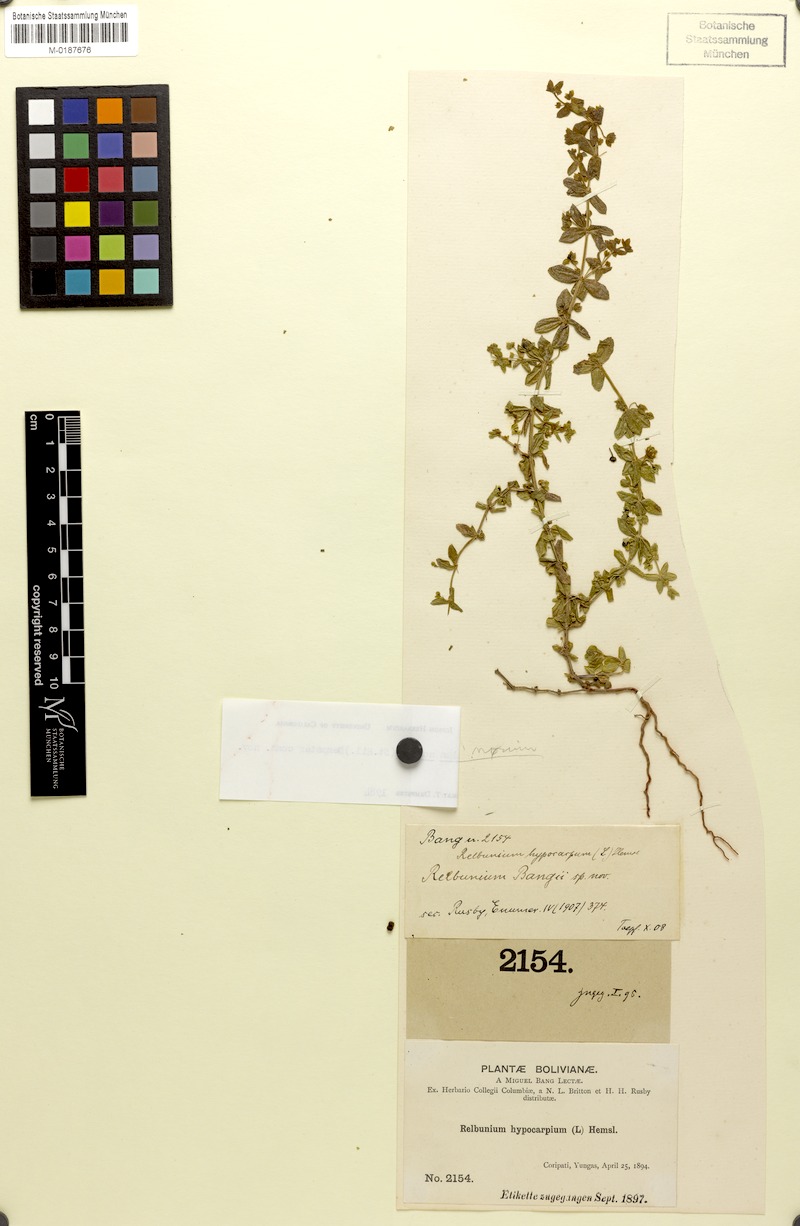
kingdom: Plantae
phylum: Tracheophyta
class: Magnoliopsida
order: Gentianales
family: Rubiaceae
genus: Galium
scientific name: Galium noxium
